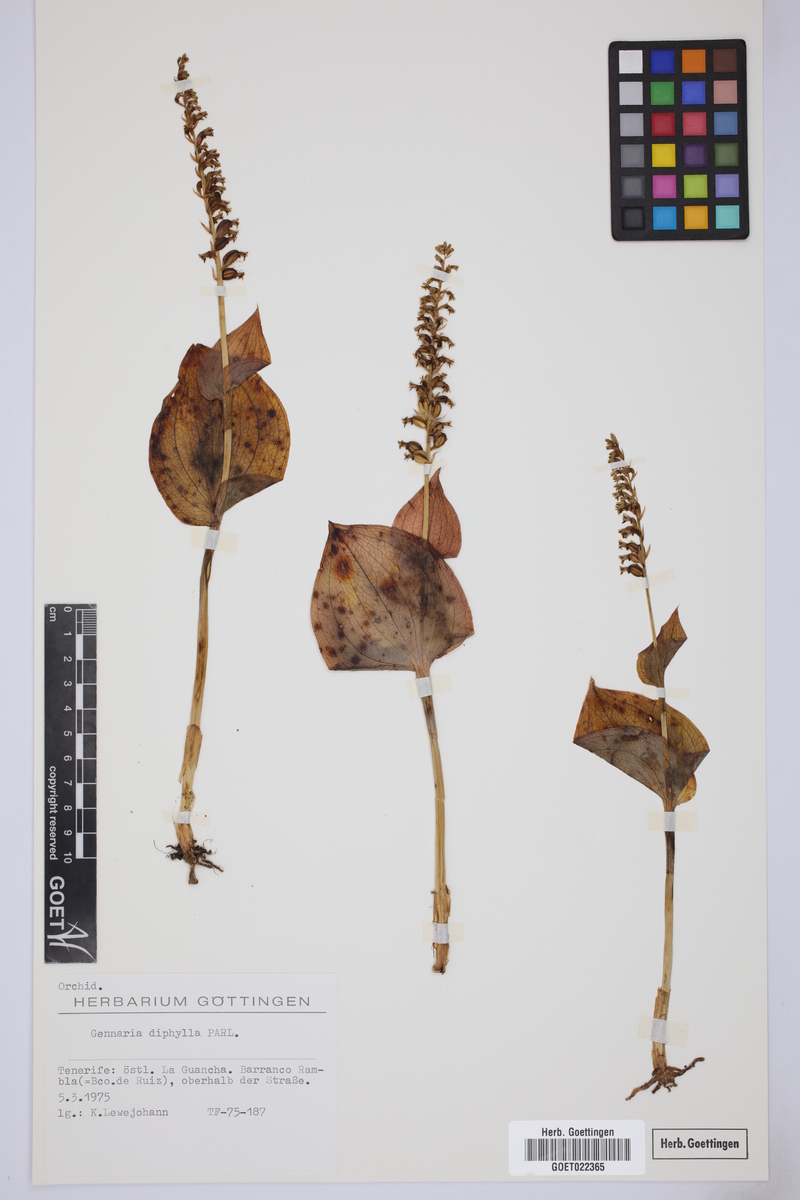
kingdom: Plantae
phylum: Tracheophyta
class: Liliopsida
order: Asparagales
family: Orchidaceae
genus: Gennaria
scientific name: Gennaria diphylla
